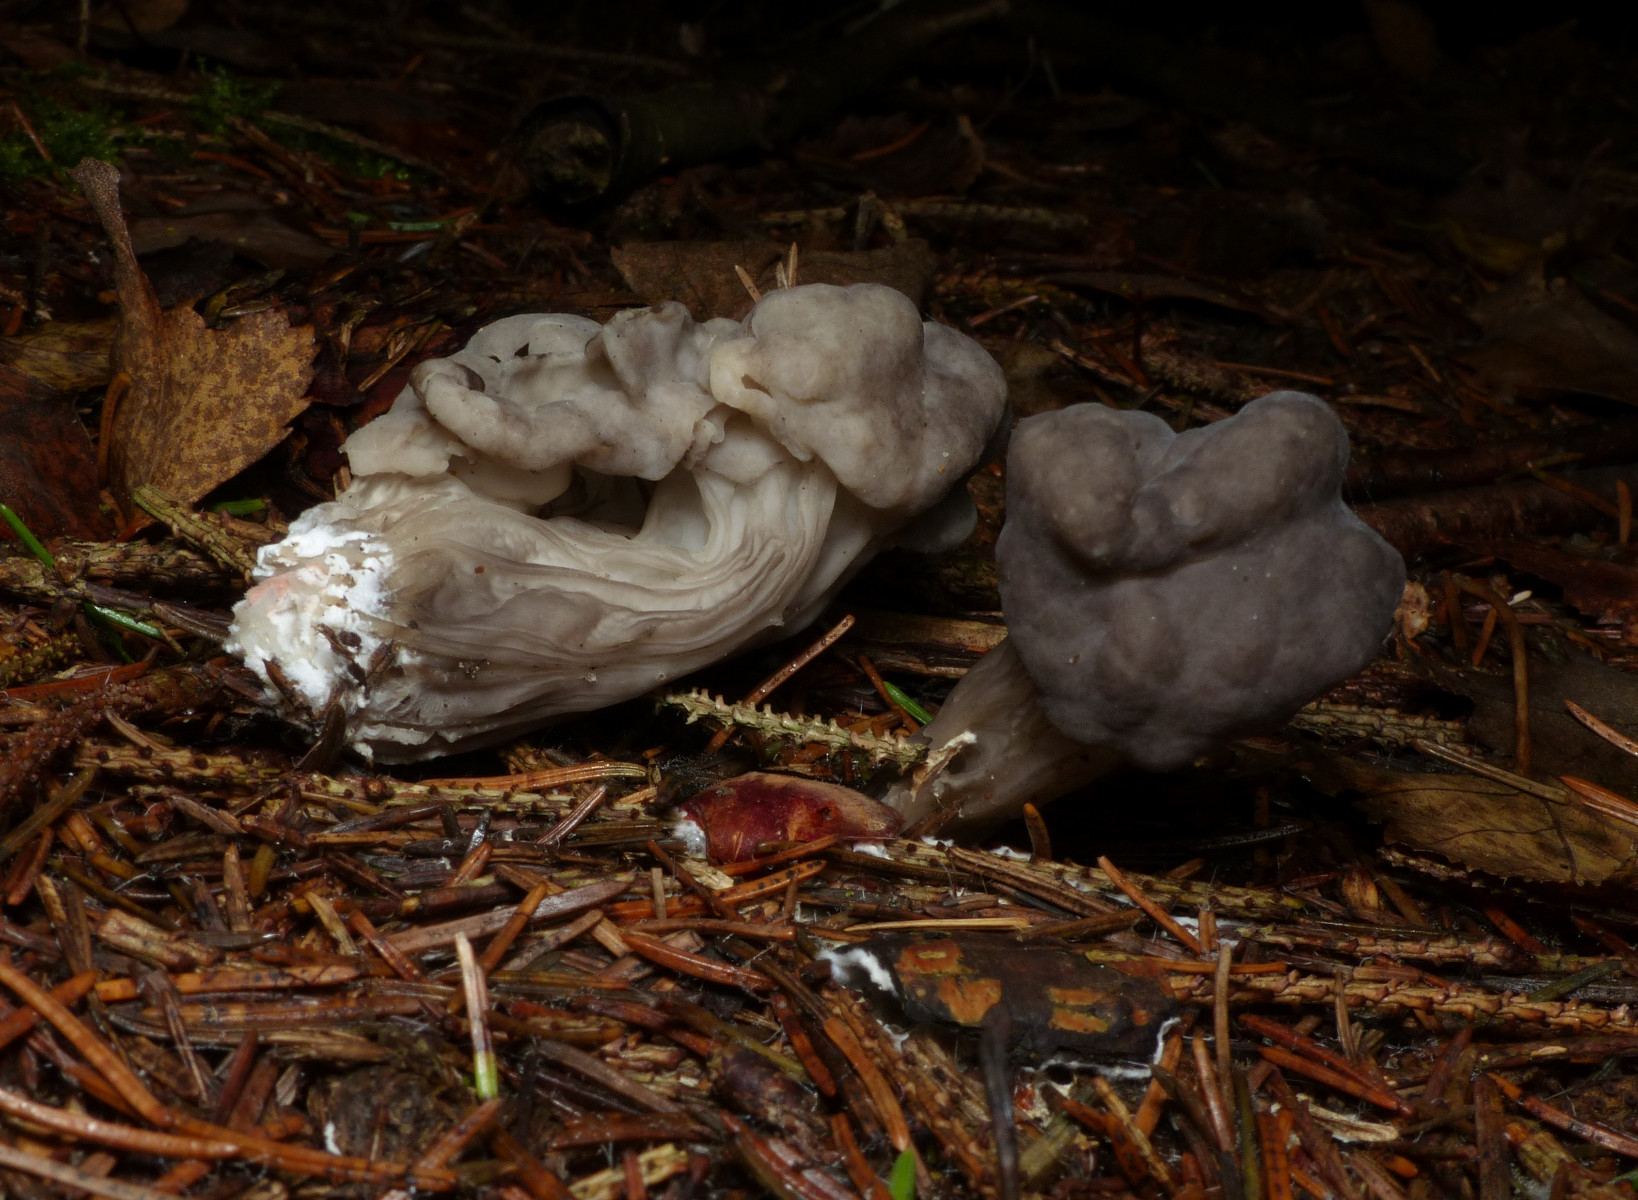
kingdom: Fungi
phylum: Ascomycota
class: Pezizomycetes
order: Pezizales
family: Helvellaceae
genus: Helvella
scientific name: Helvella lacunosa
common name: grubet foldhat
